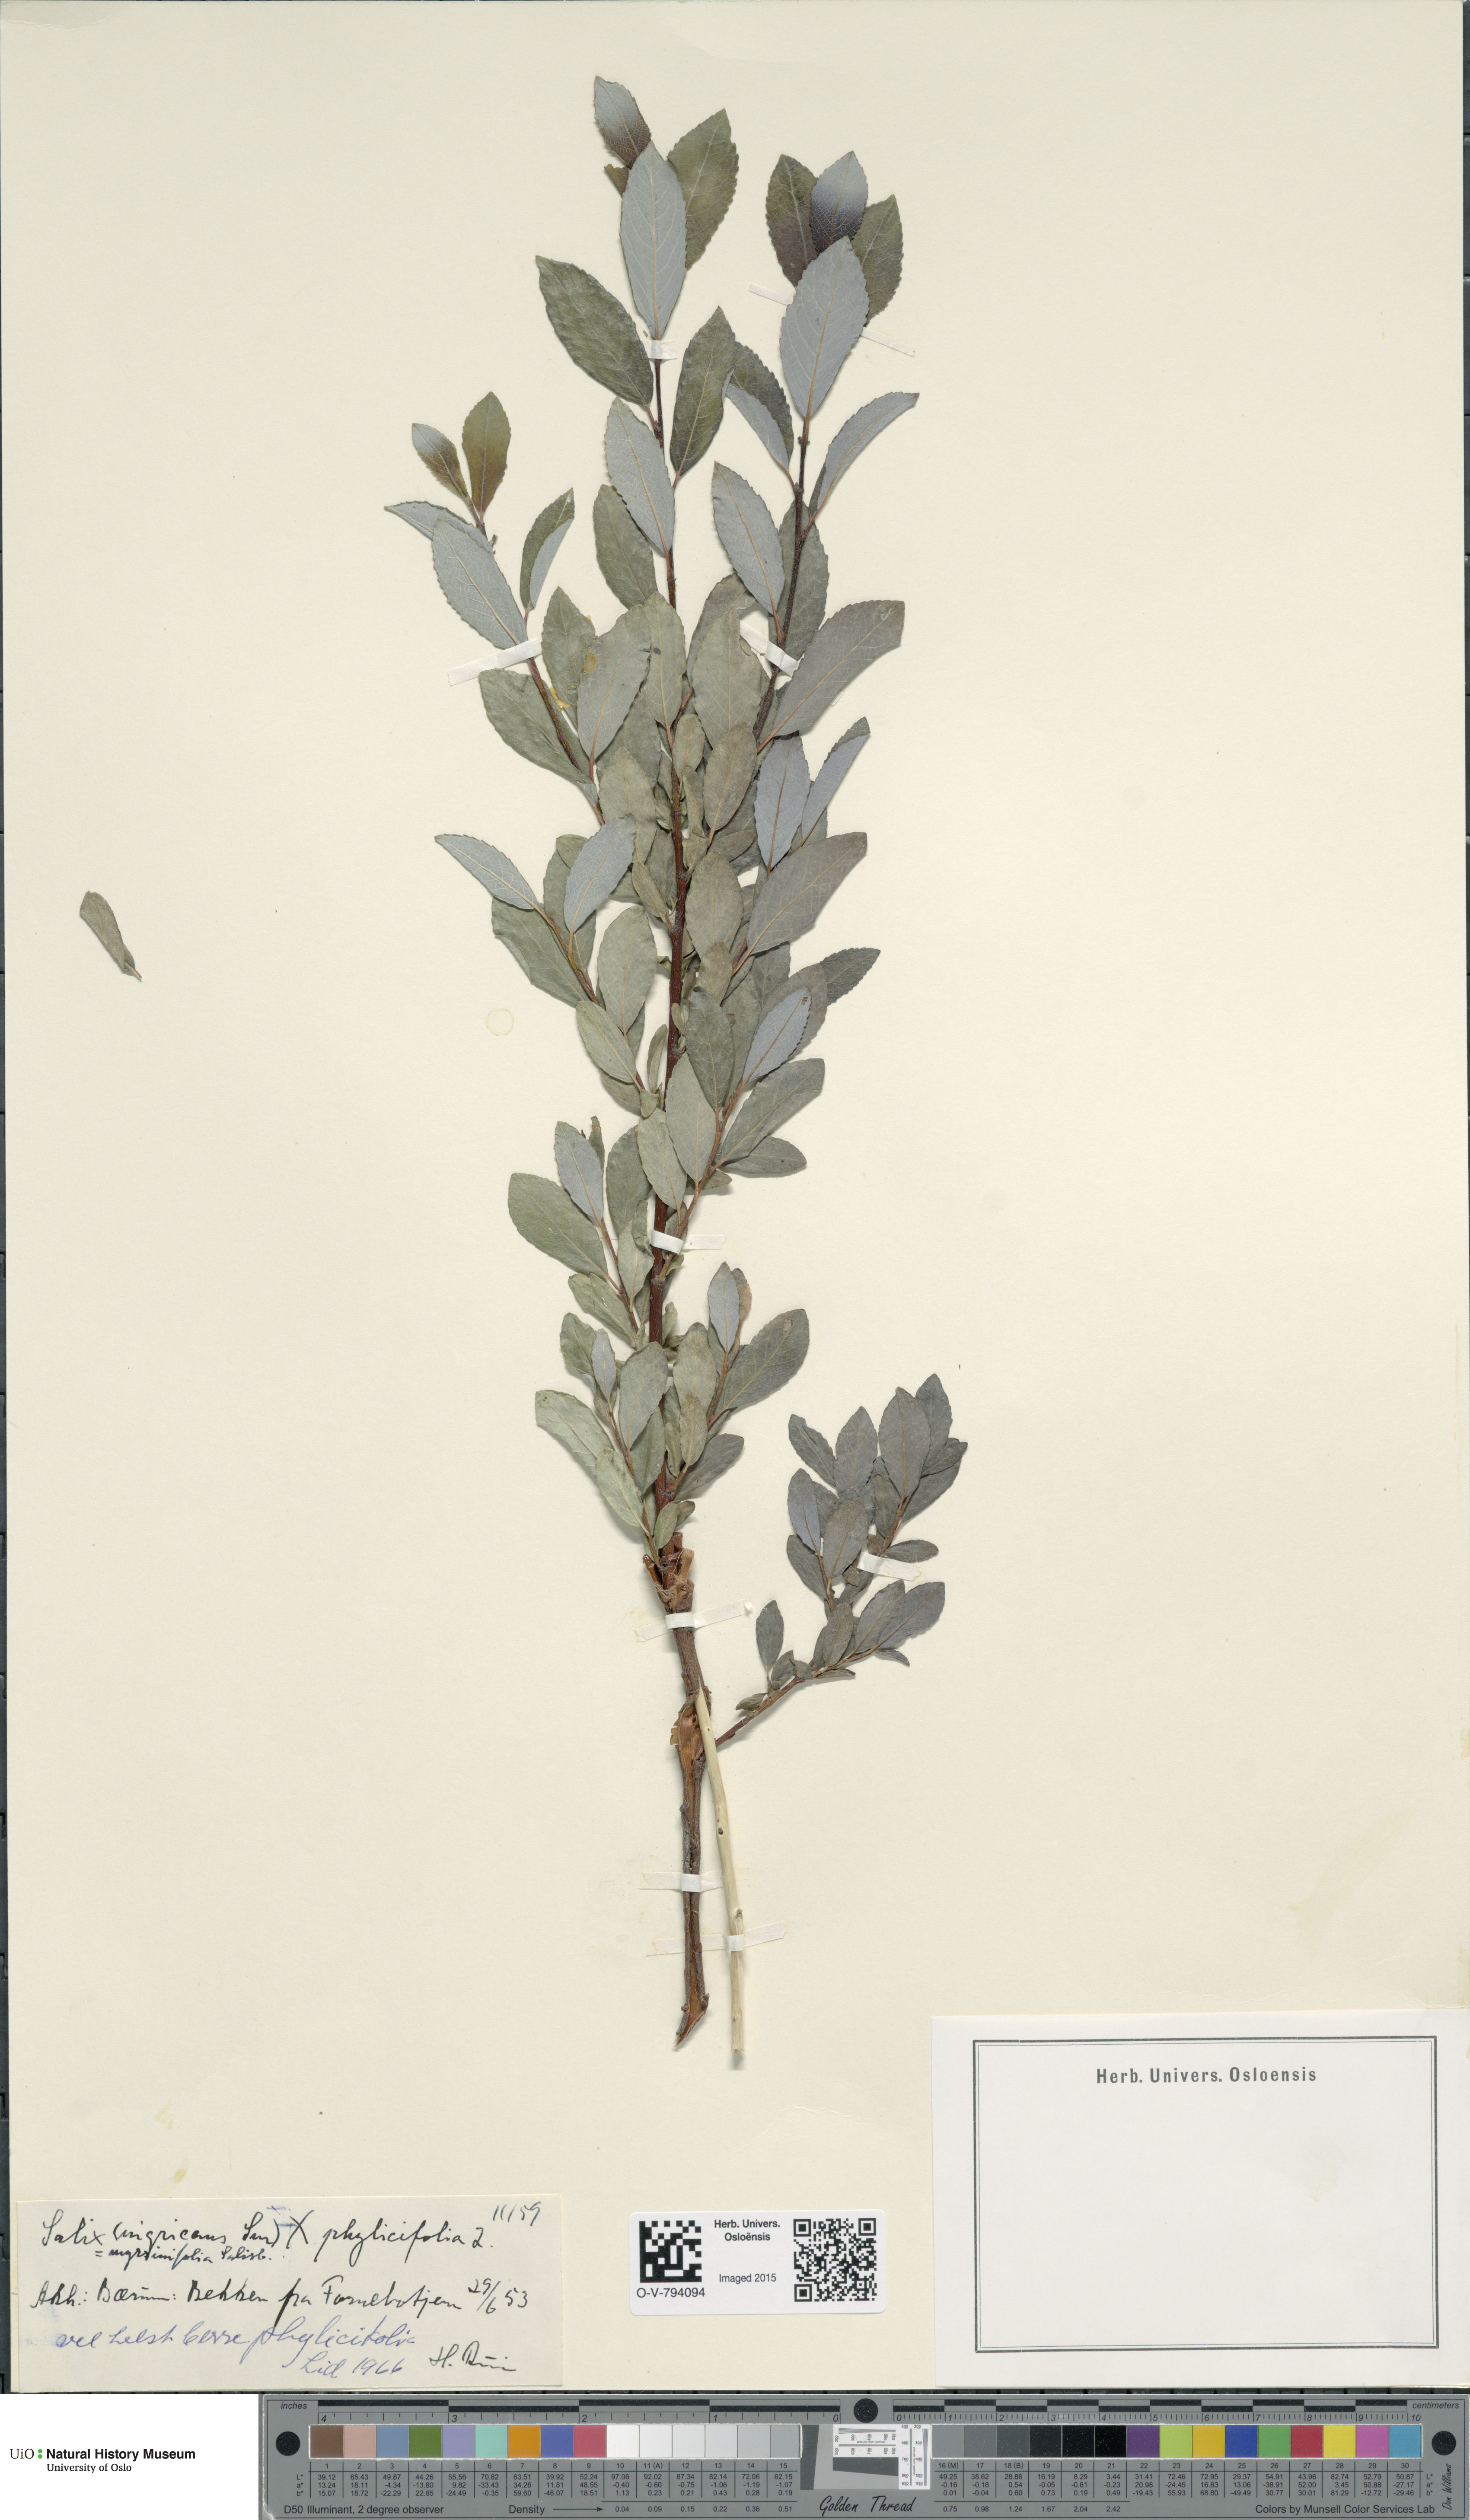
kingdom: Plantae
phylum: Tracheophyta
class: Magnoliopsida
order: Malpighiales
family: Salicaceae
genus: Salix
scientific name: Salix
